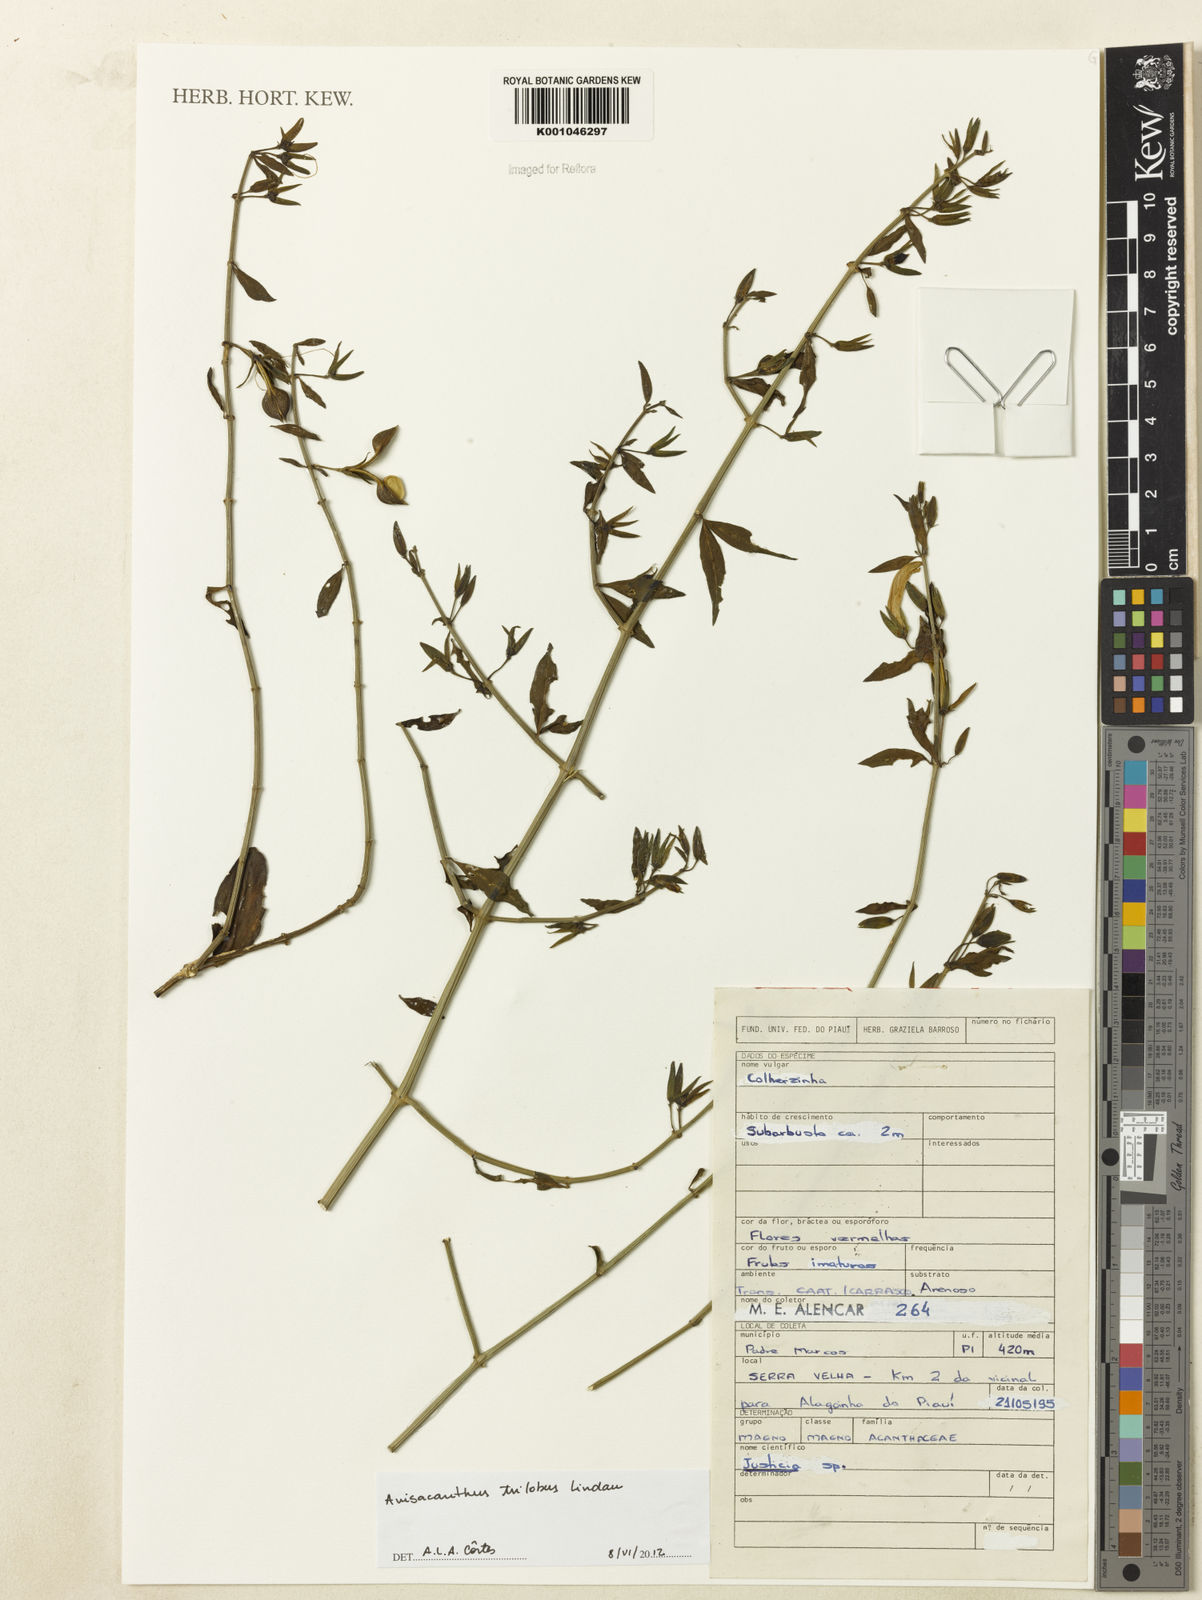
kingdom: Plantae
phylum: Tracheophyta
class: Magnoliopsida
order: Lamiales
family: Acanthaceae
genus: Justicia
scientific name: Justicia triloba
